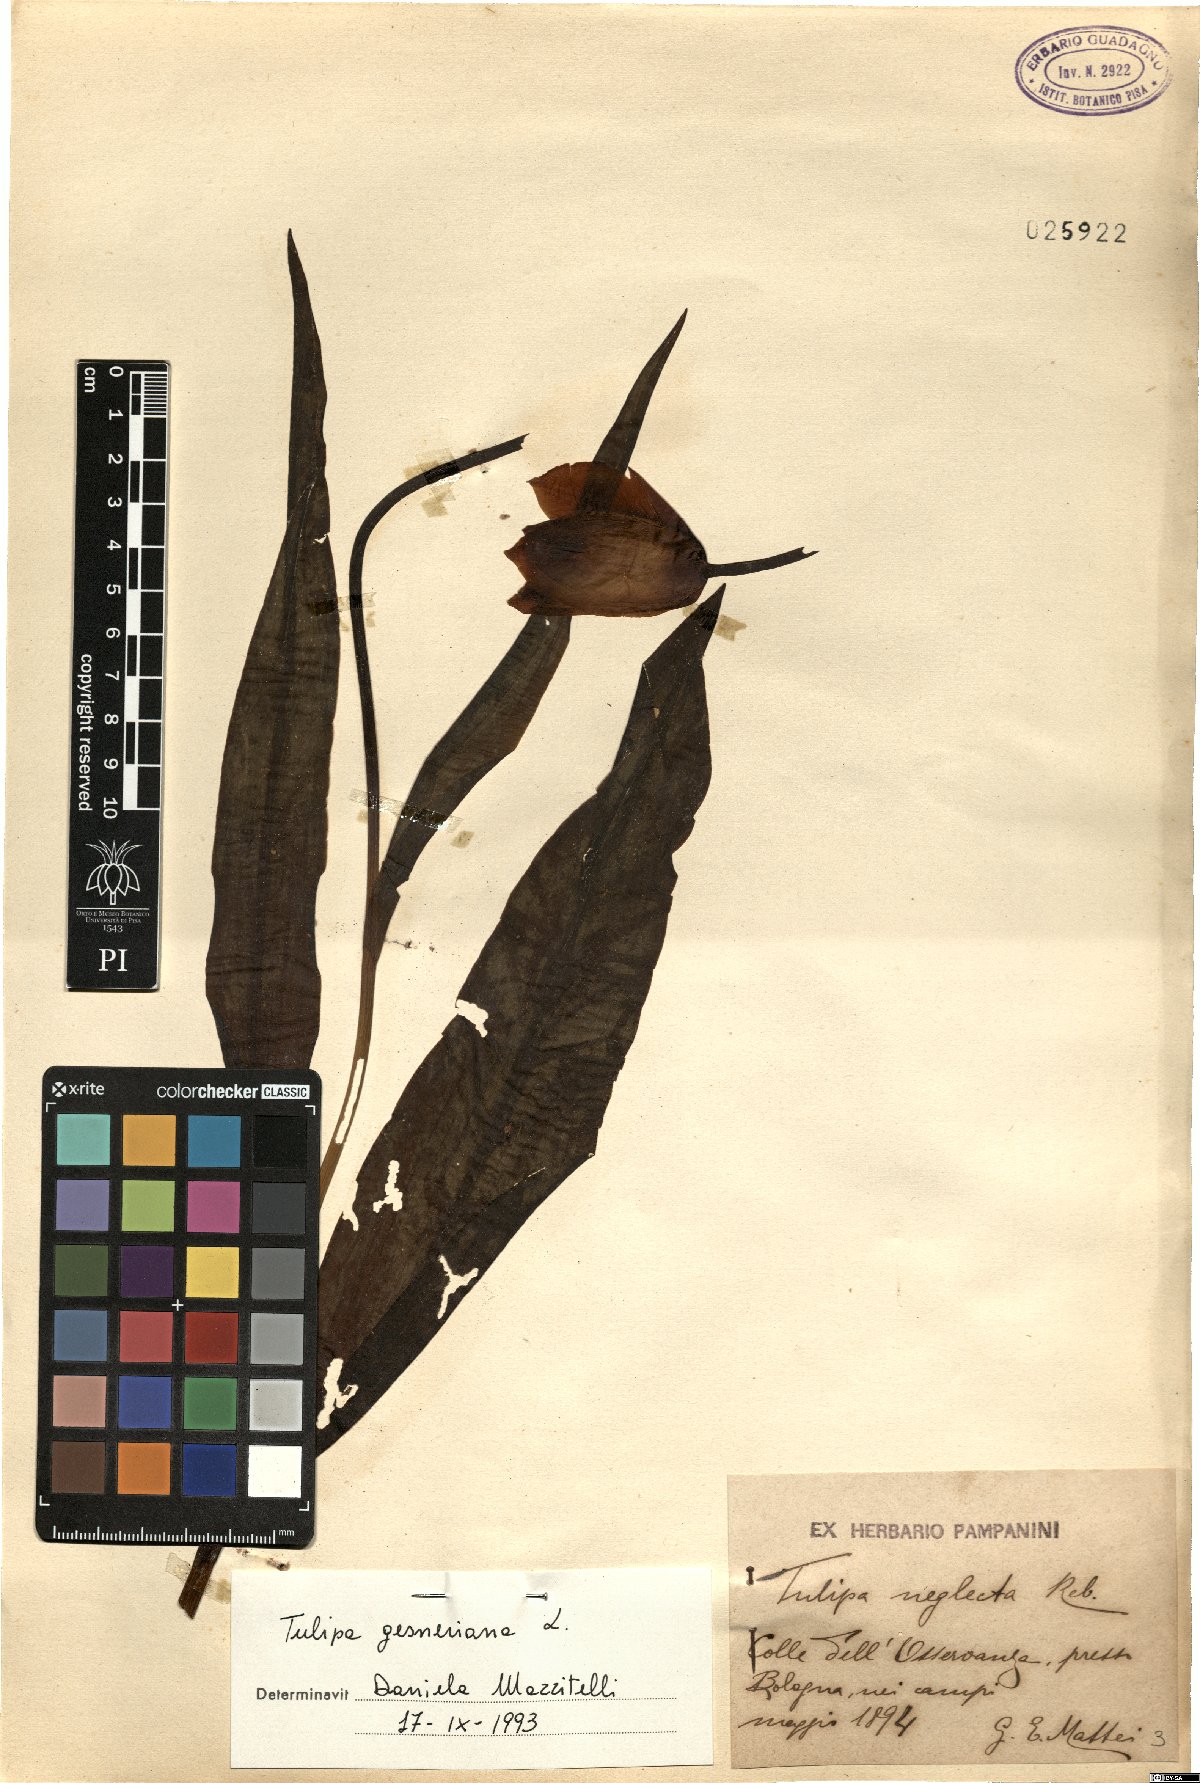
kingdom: Plantae
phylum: Tracheophyta
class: Liliopsida
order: Liliales
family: Liliaceae
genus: Tulipa
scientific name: Tulipa gesneriana
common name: Garden tulip
